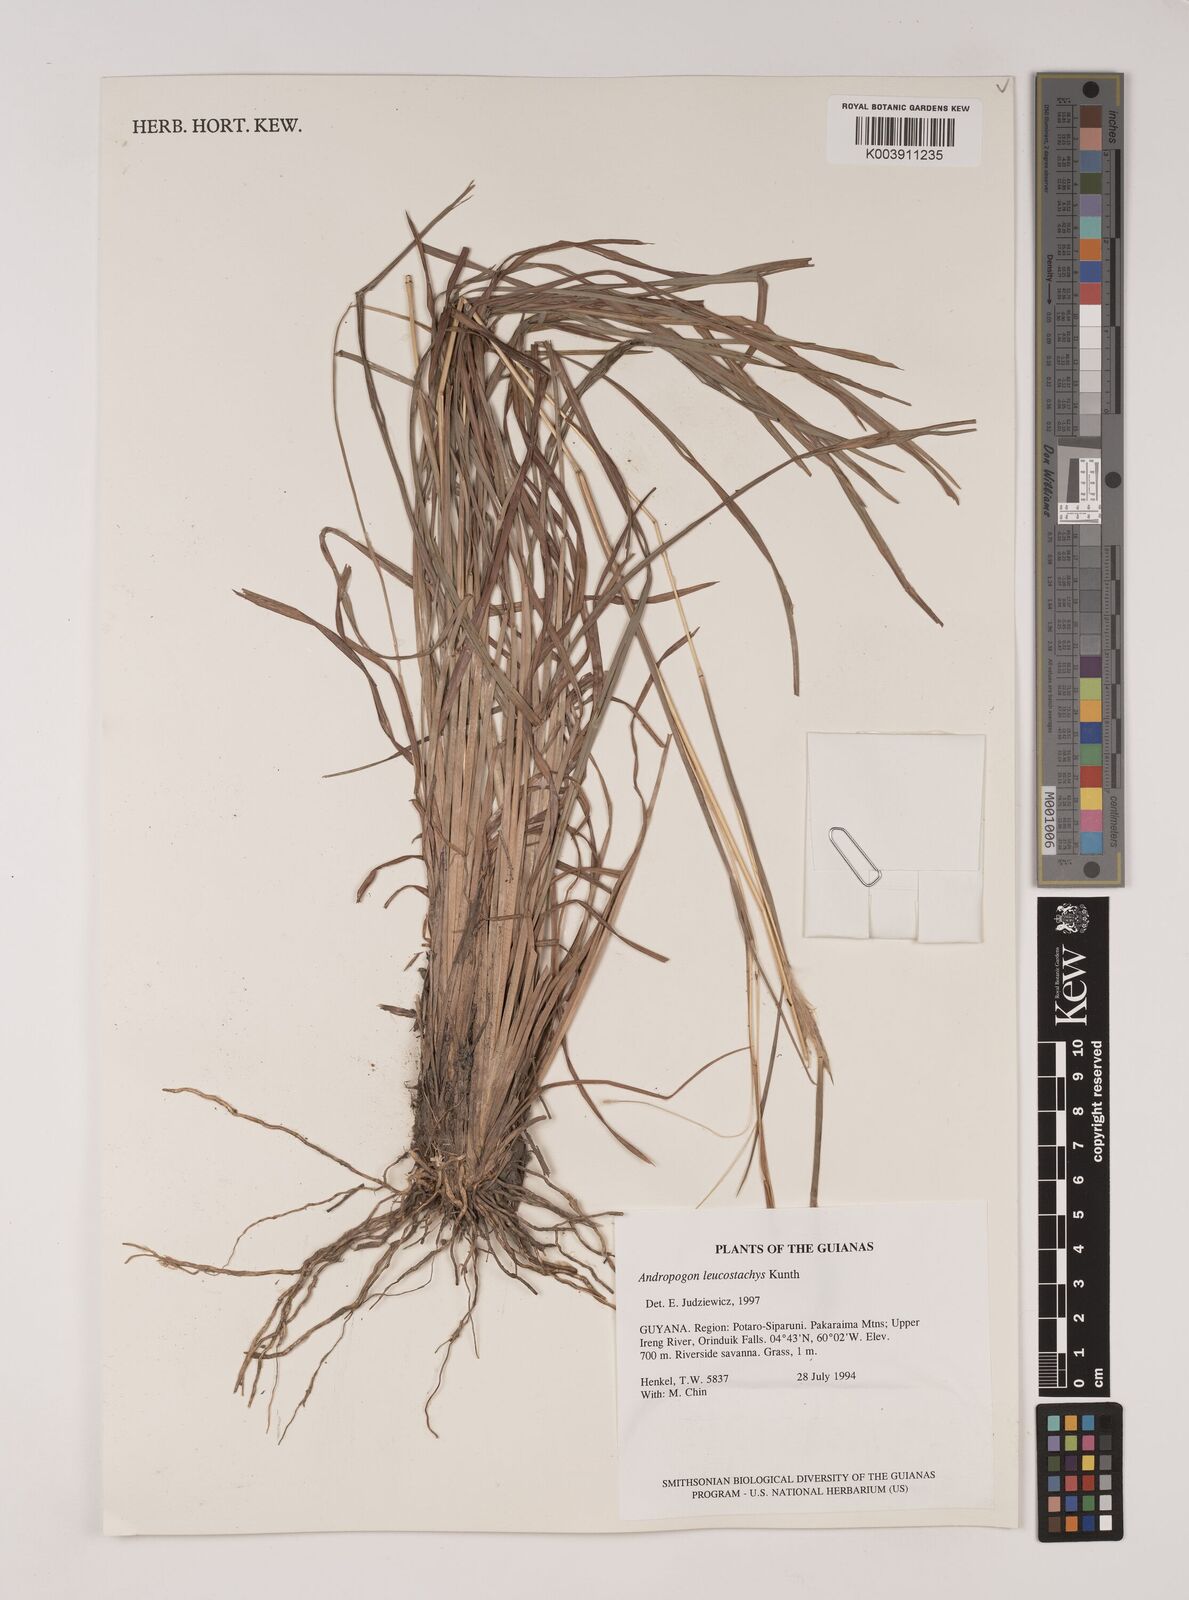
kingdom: Plantae
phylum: Tracheophyta
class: Liliopsida
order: Poales
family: Poaceae
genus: Andropogon
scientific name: Andropogon leucostachyus
